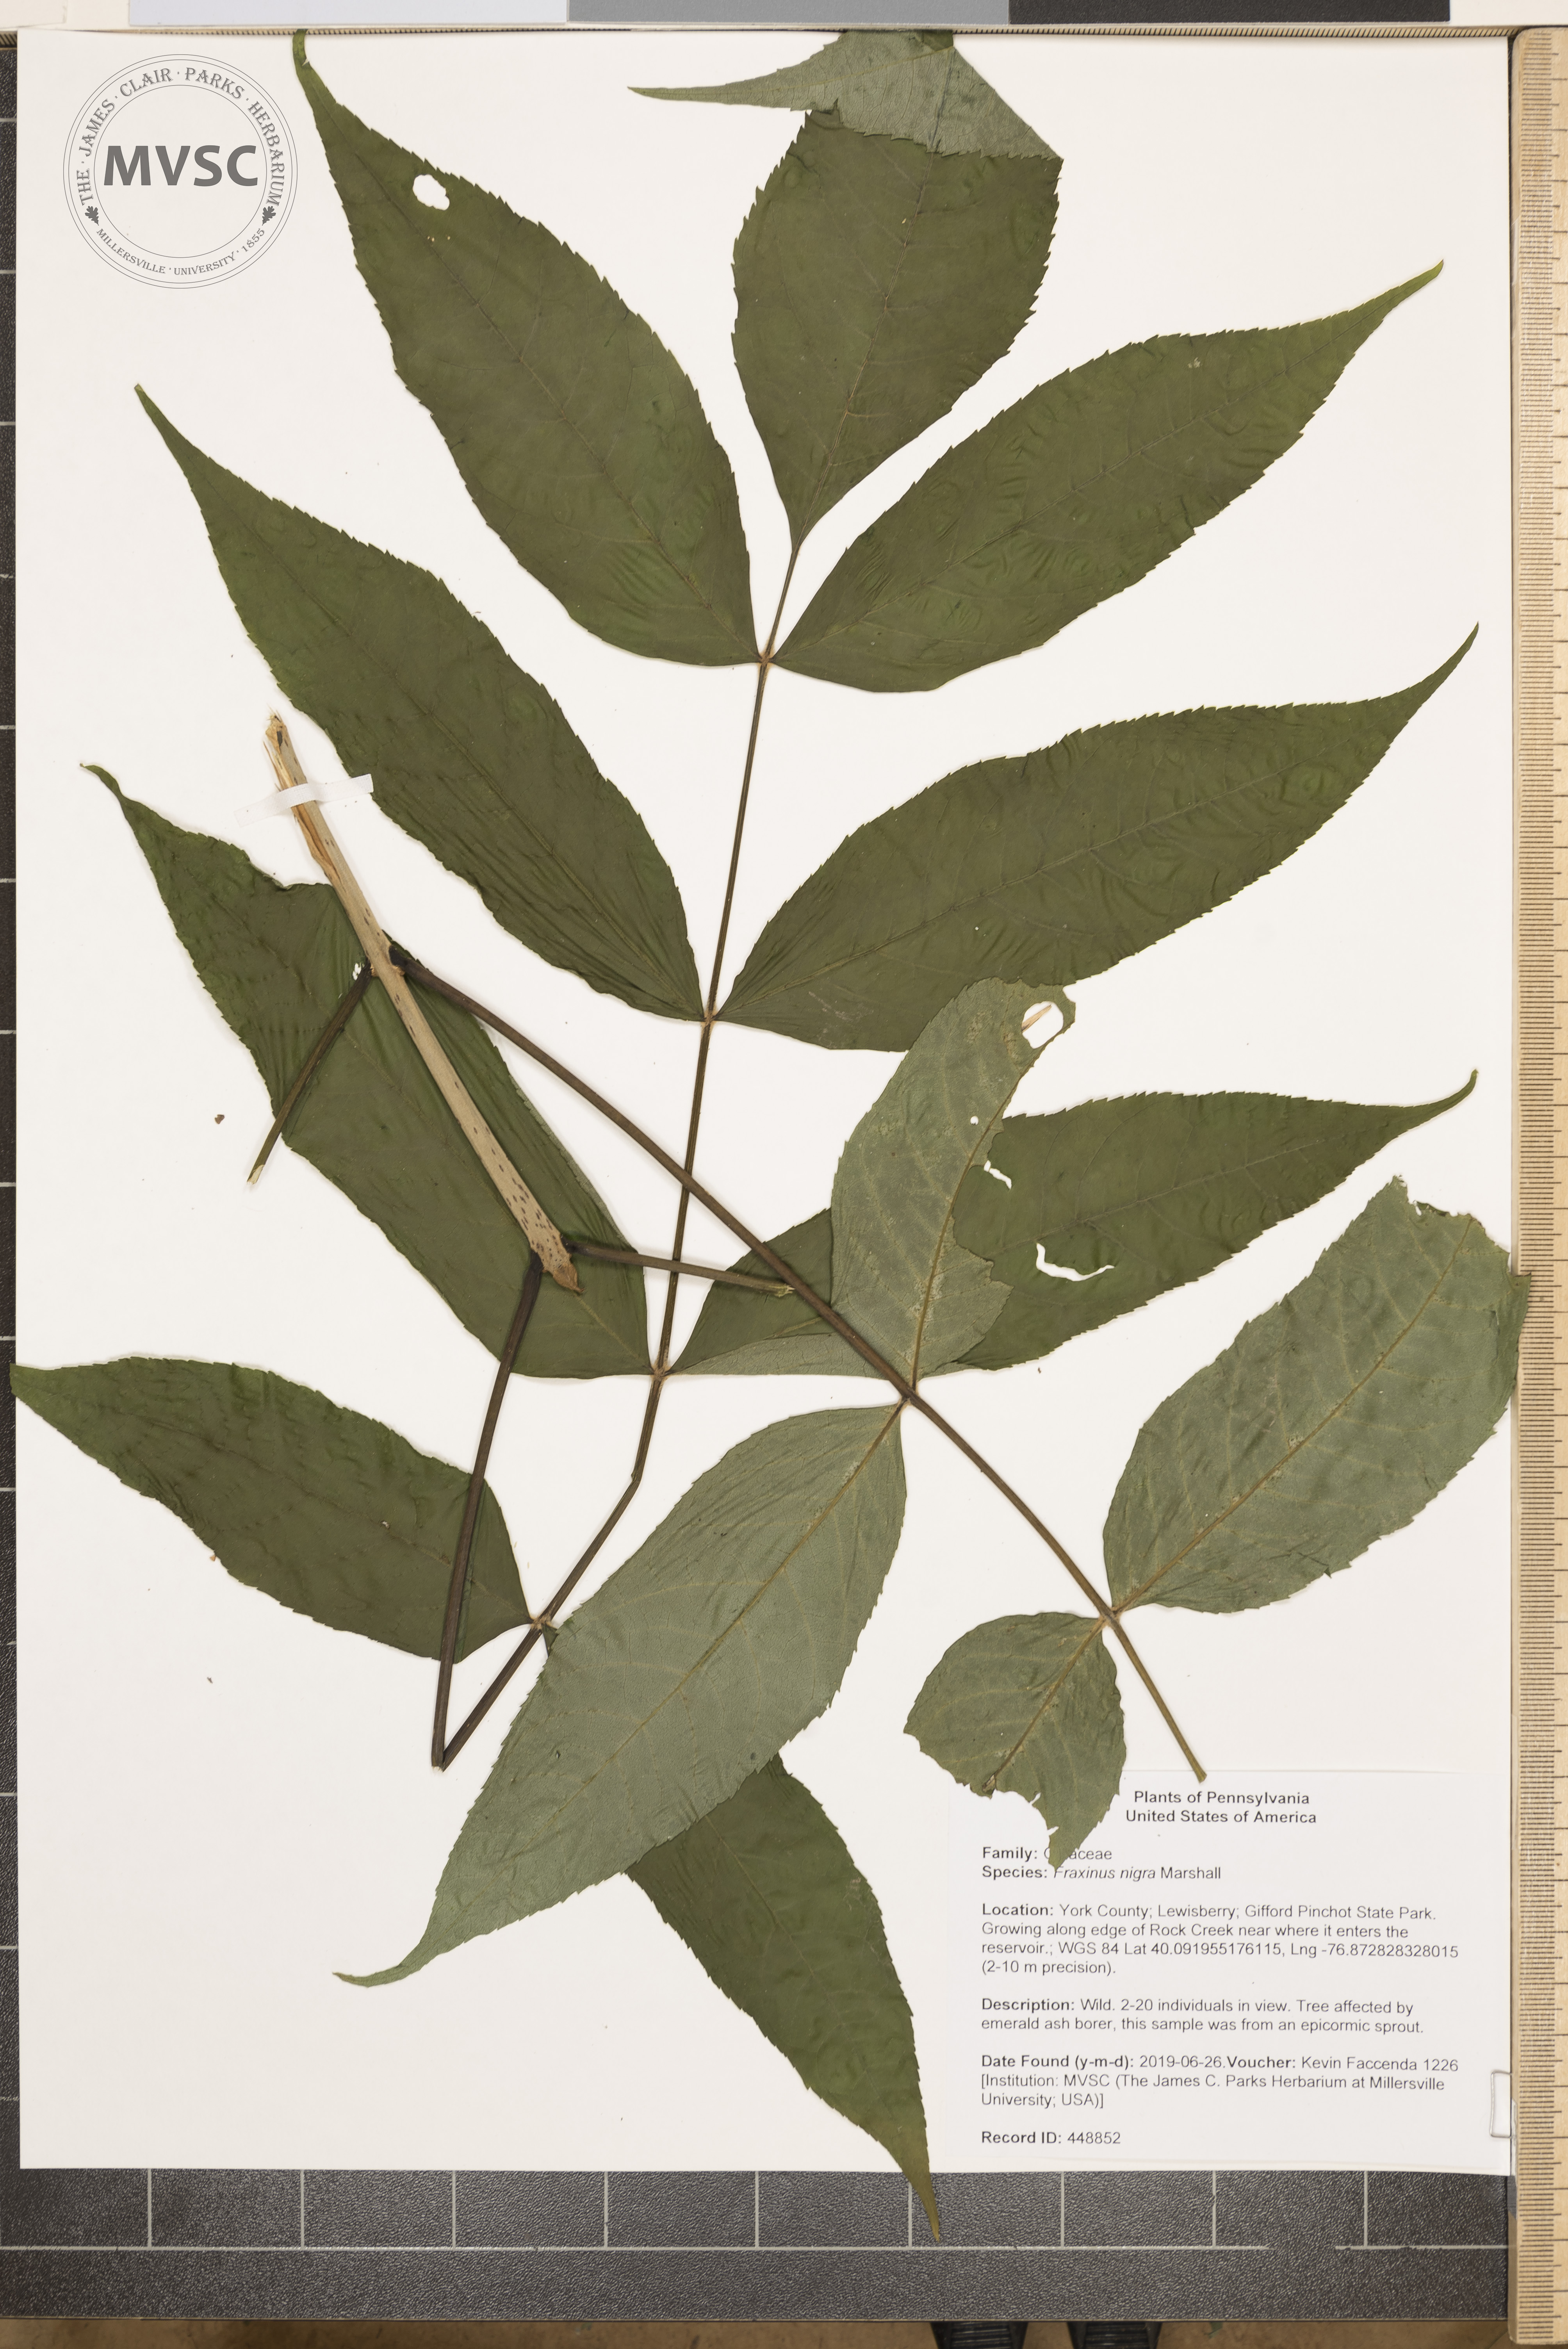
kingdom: Plantae
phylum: Tracheophyta
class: Magnoliopsida
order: Lamiales
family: Oleaceae
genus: Fraxinus
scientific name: Fraxinus nigra
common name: Black ash
